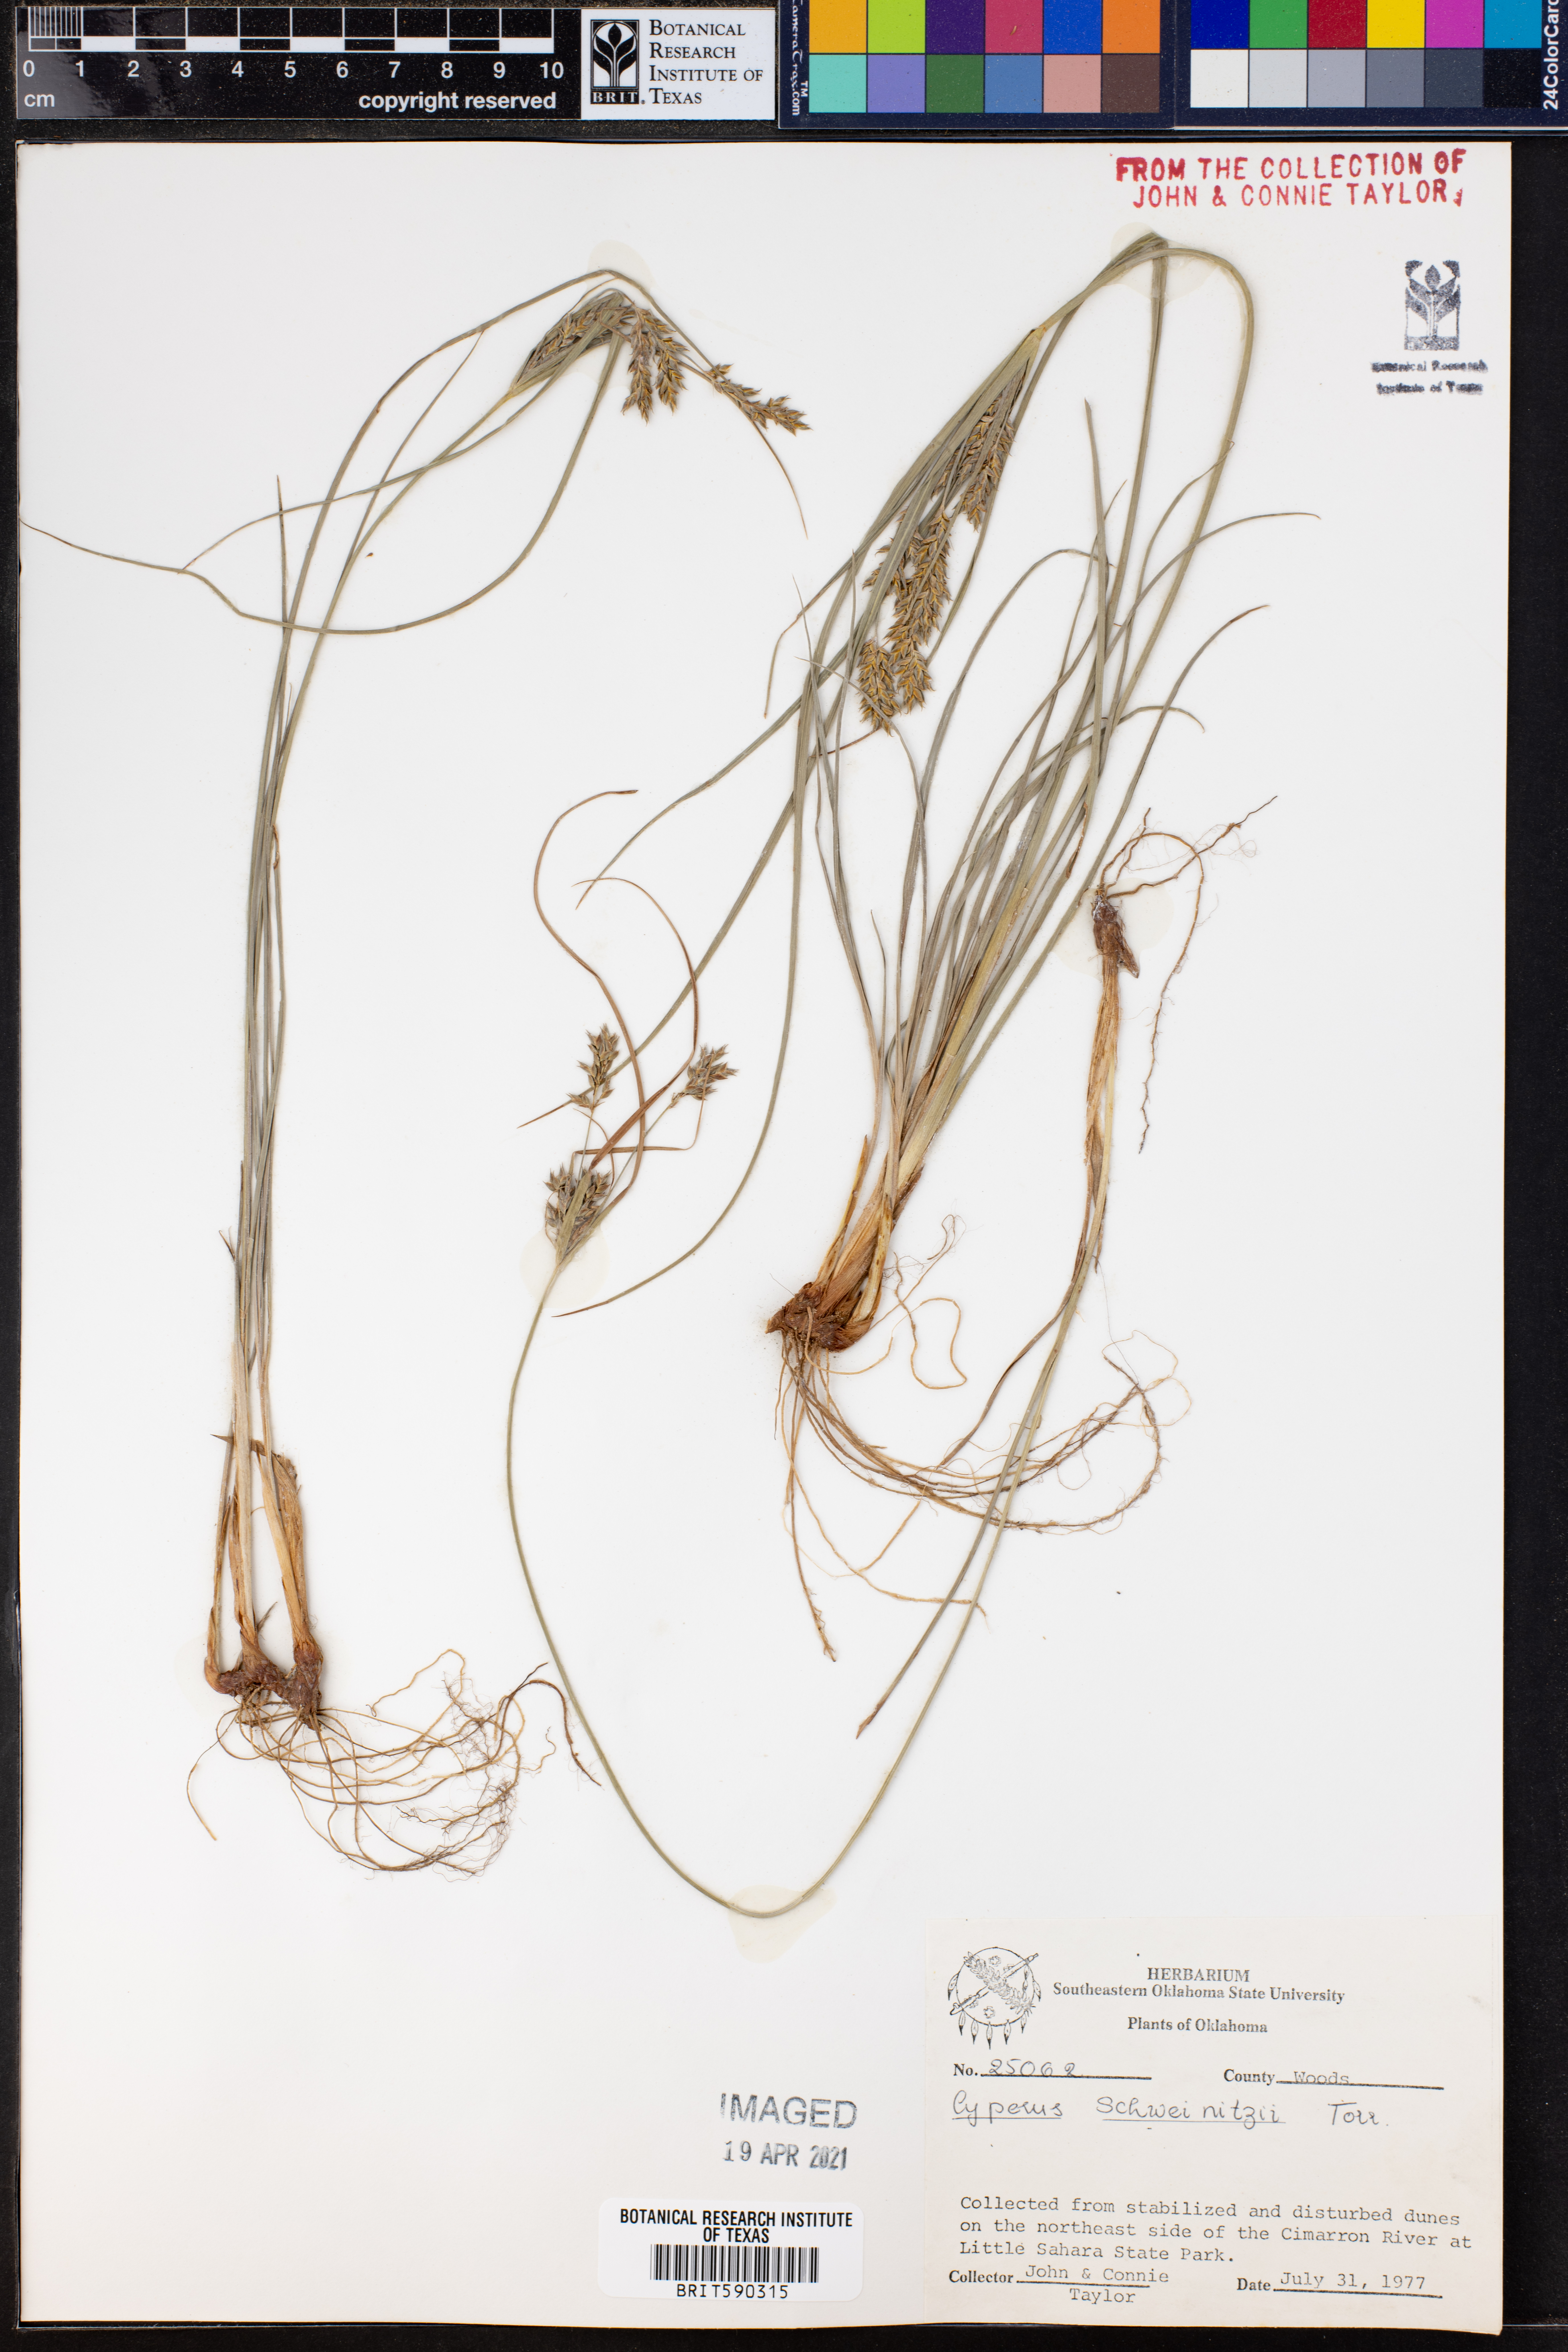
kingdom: Plantae
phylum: Tracheophyta
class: Liliopsida
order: Poales
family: Cyperaceae
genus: Cyperus
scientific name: Cyperus schweinitzii
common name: Schweinitz's cyperus
